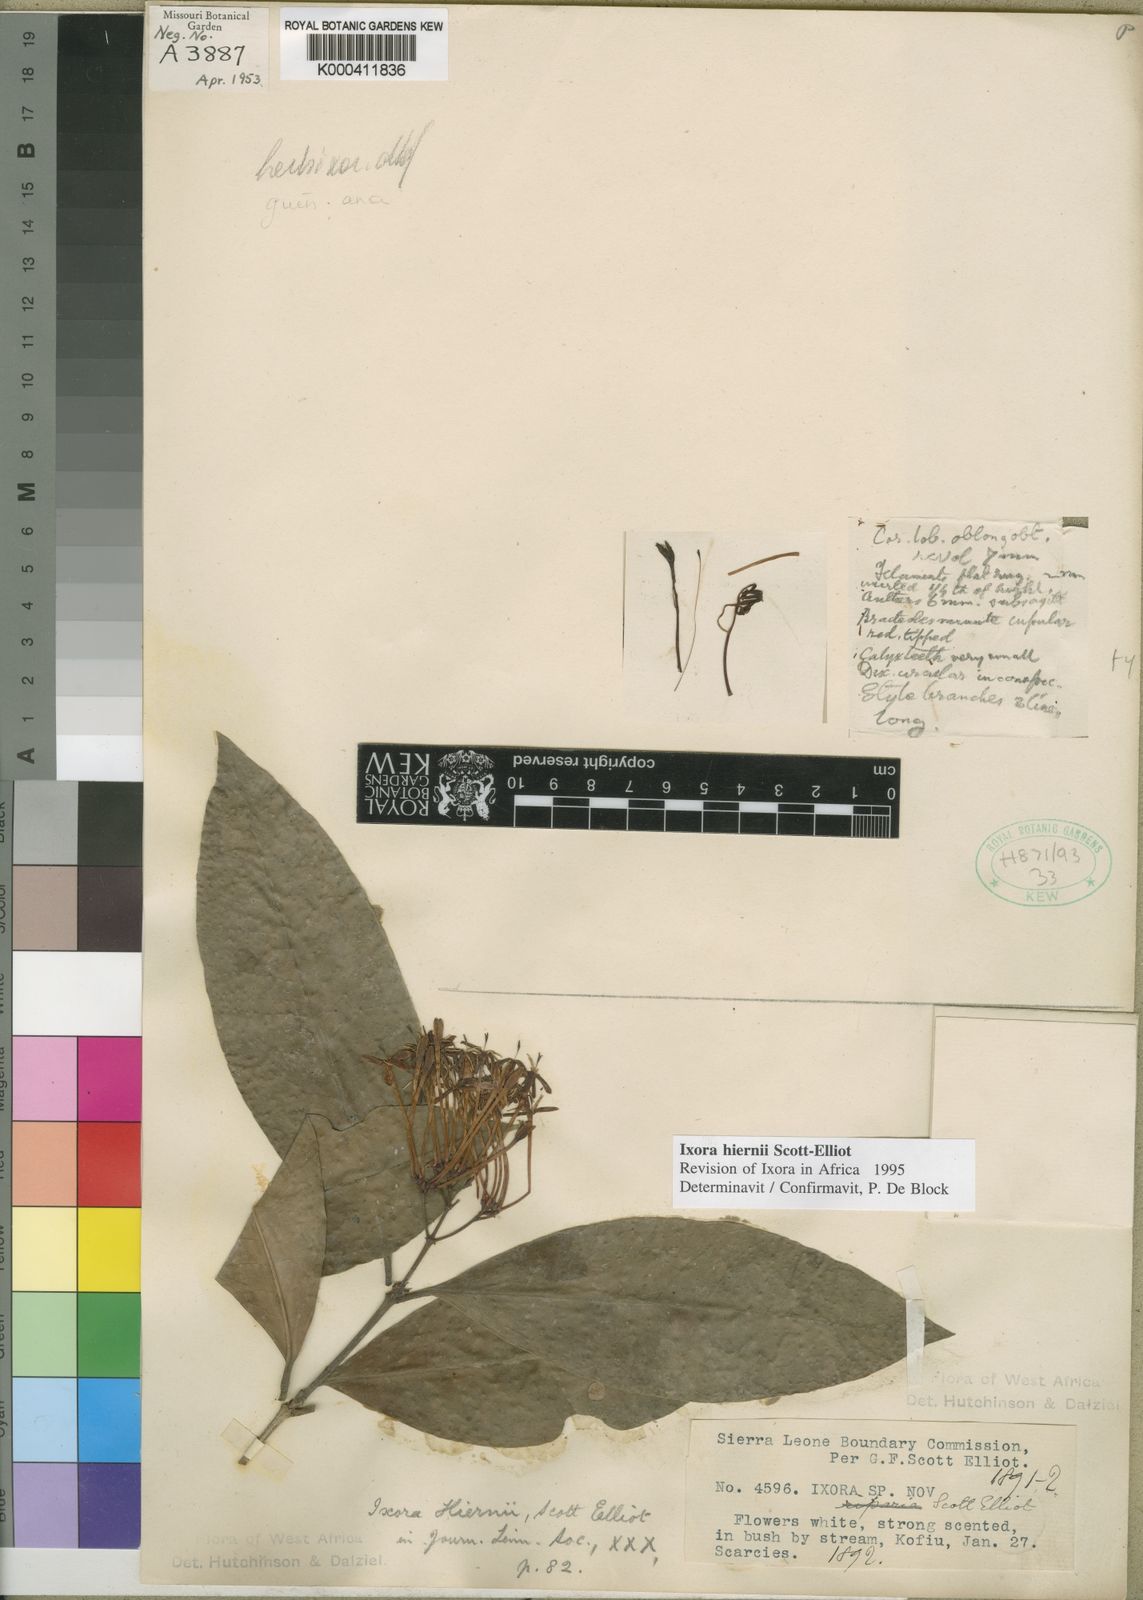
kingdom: Plantae
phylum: Tracheophyta
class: Magnoliopsida
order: Gentianales
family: Rubiaceae
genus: Ixora
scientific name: Ixora hiernii
